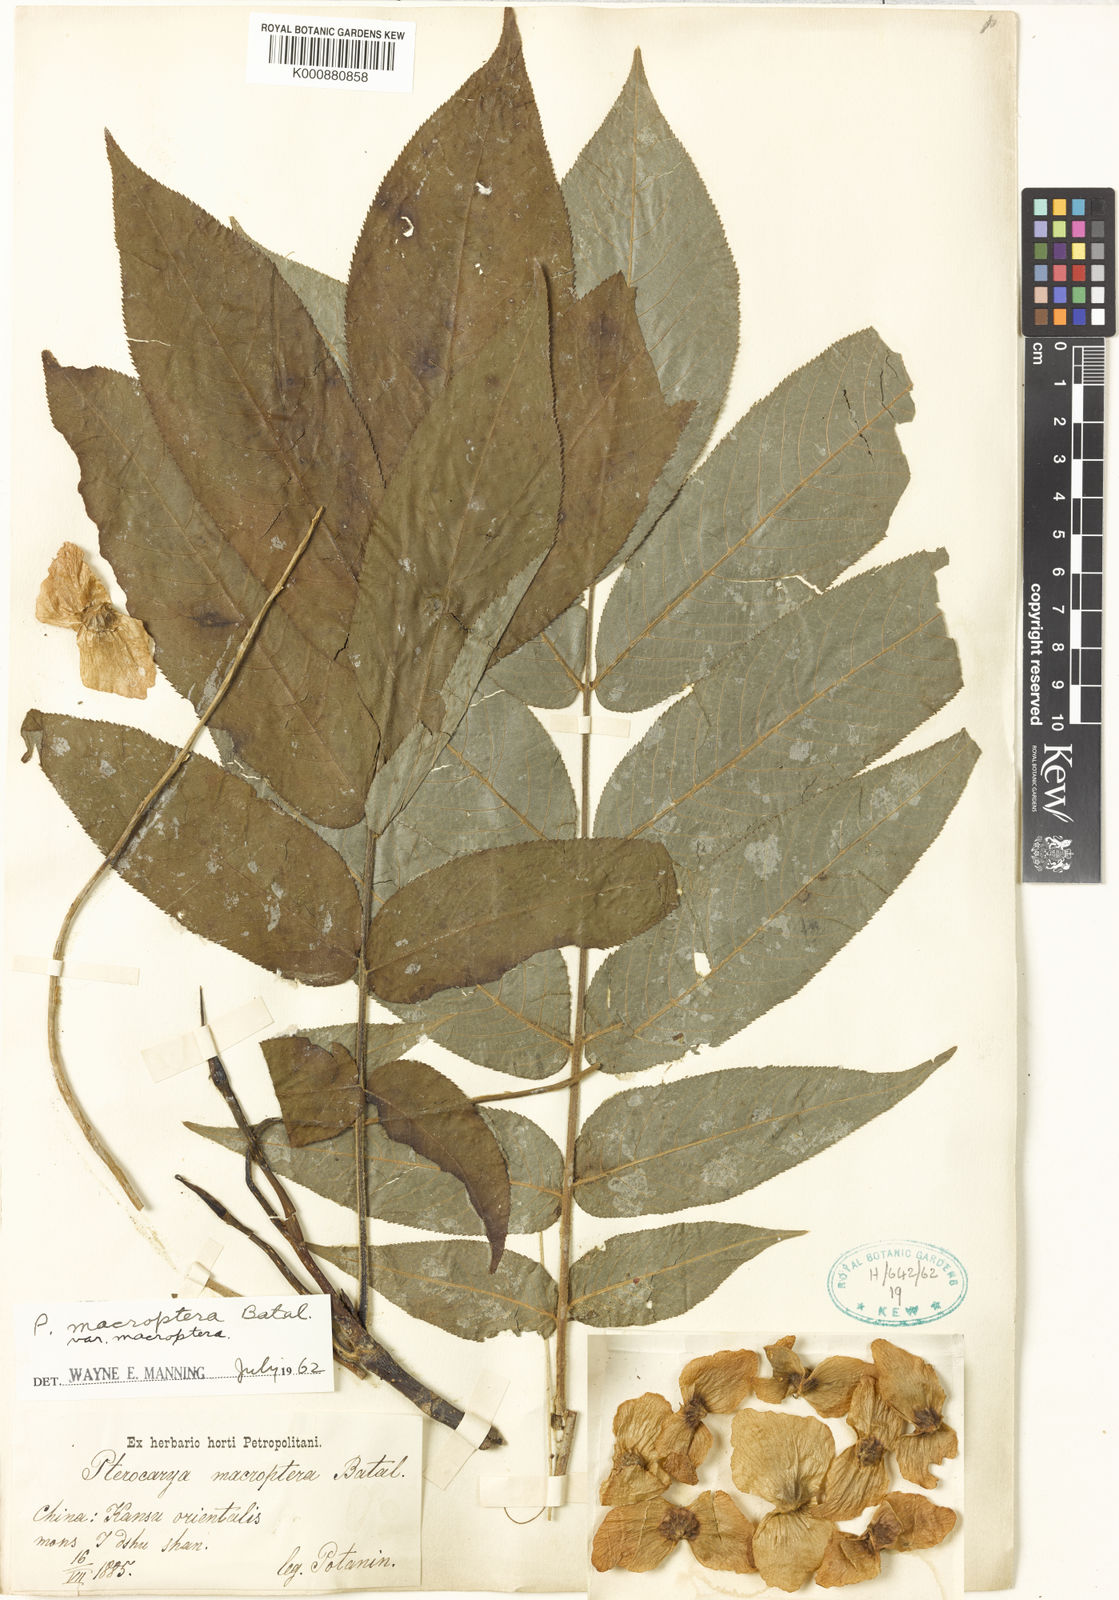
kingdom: Plantae
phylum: Tracheophyta
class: Magnoliopsida
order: Fagales
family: Juglandaceae
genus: Pterocarya
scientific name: Pterocarya macroptera
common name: Large-winged wingnut
